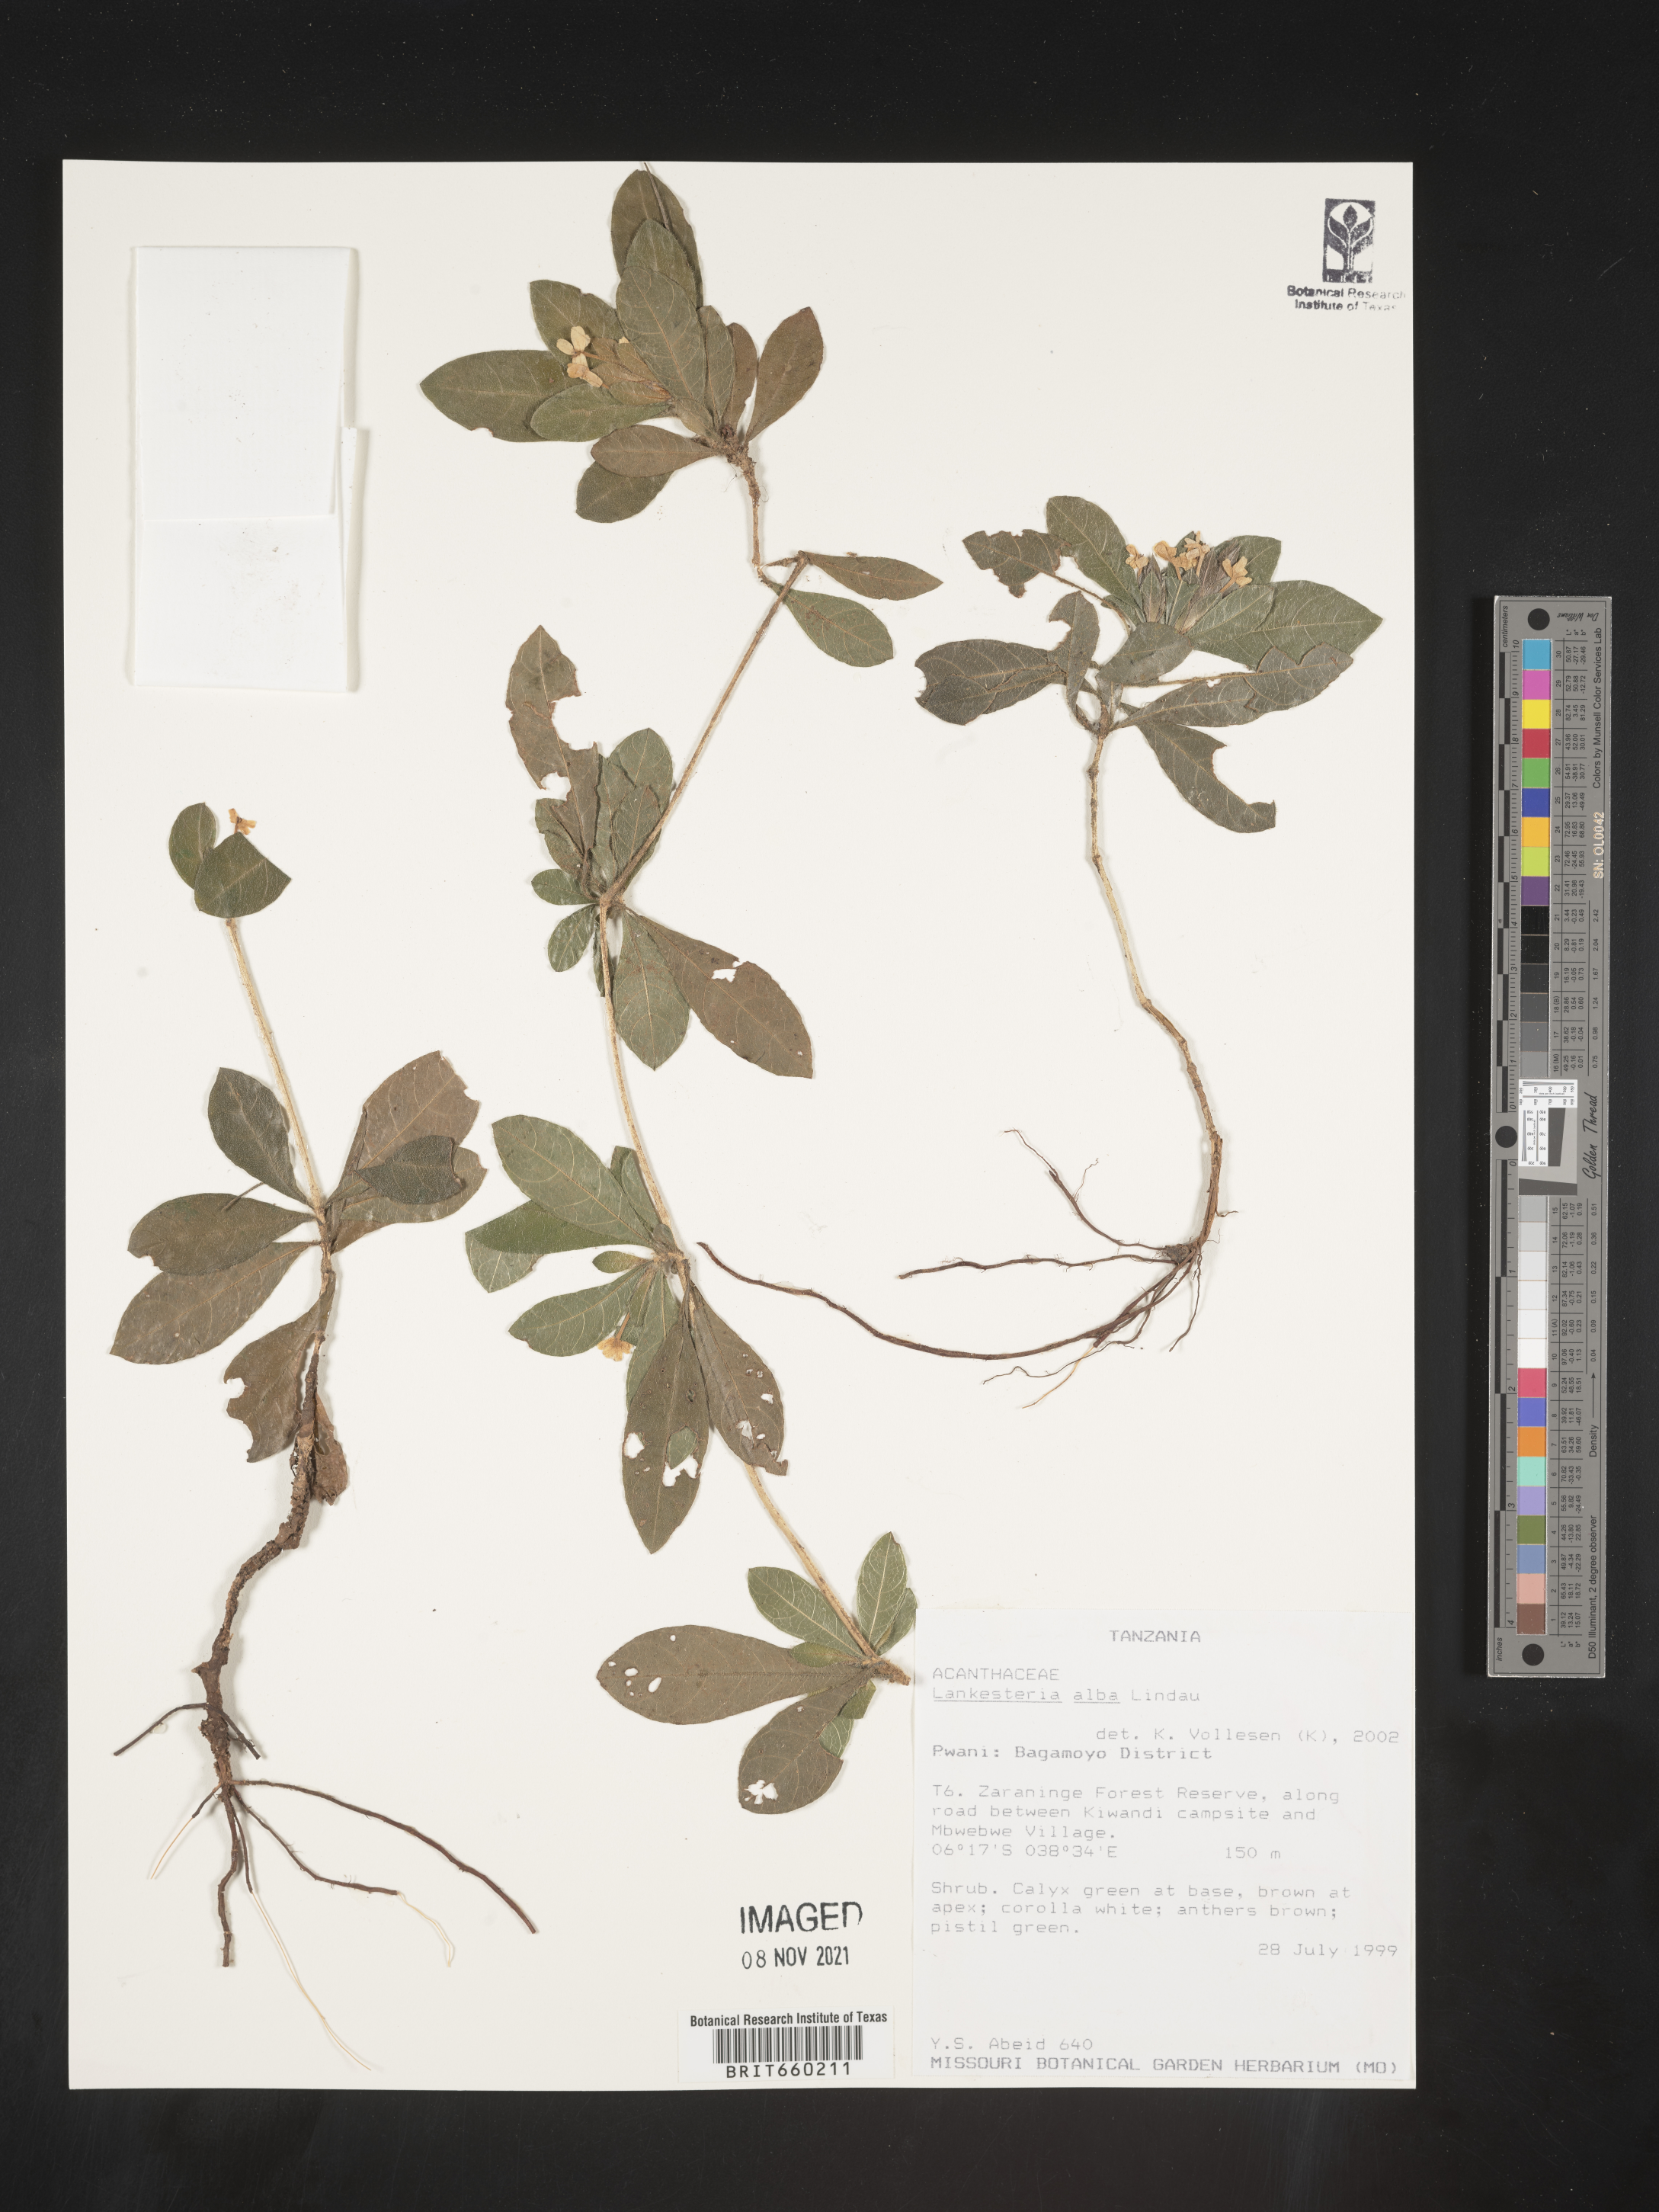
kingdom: Plantae
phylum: Tracheophyta
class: Magnoliopsida
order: Lamiales
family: Acanthaceae
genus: Lankesteria
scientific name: Lankesteria
